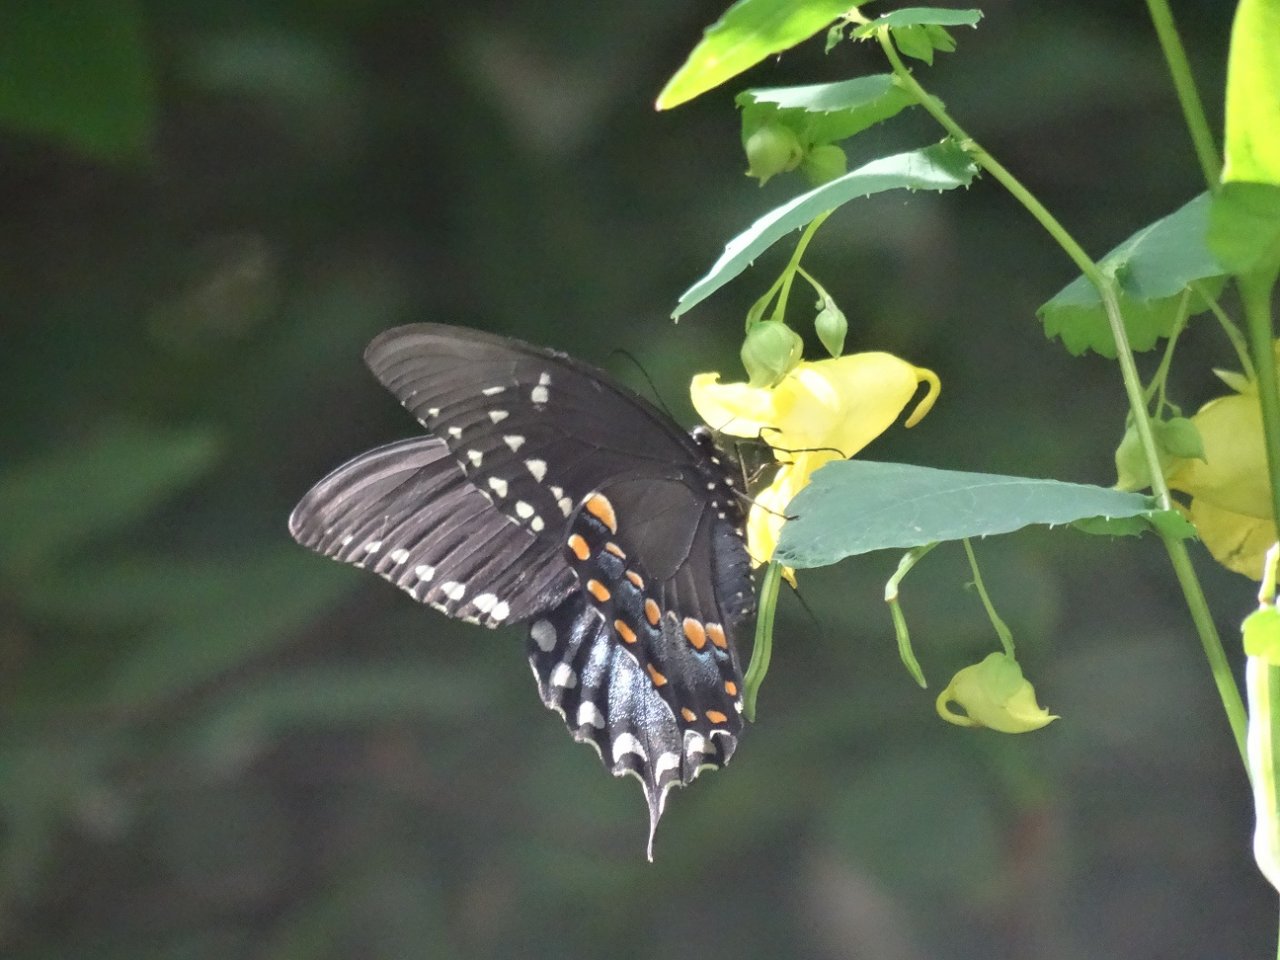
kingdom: Animalia
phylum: Arthropoda
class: Insecta
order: Lepidoptera
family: Papilionidae
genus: Pterourus
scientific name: Pterourus troilus
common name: Spicebush Swallowtail
